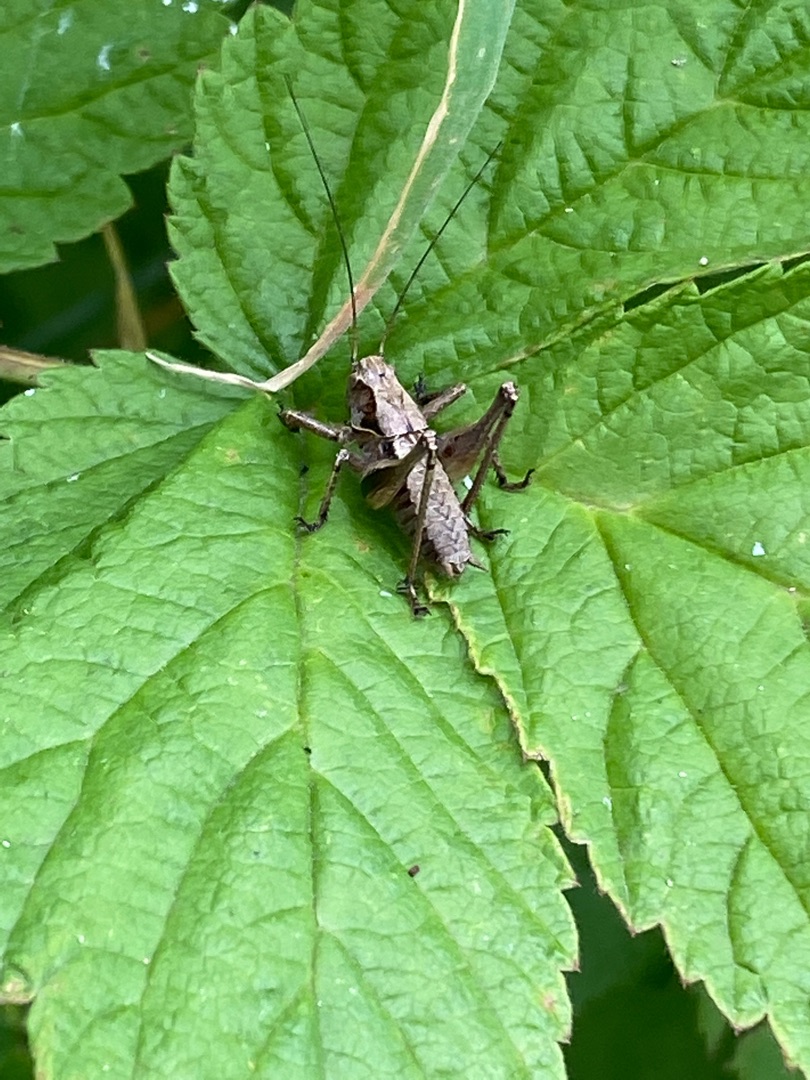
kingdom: Animalia
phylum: Arthropoda
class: Insecta
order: Orthoptera
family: Tettigoniidae
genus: Pholidoptera
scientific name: Pholidoptera griseoaptera
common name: Buskgræshoppe
